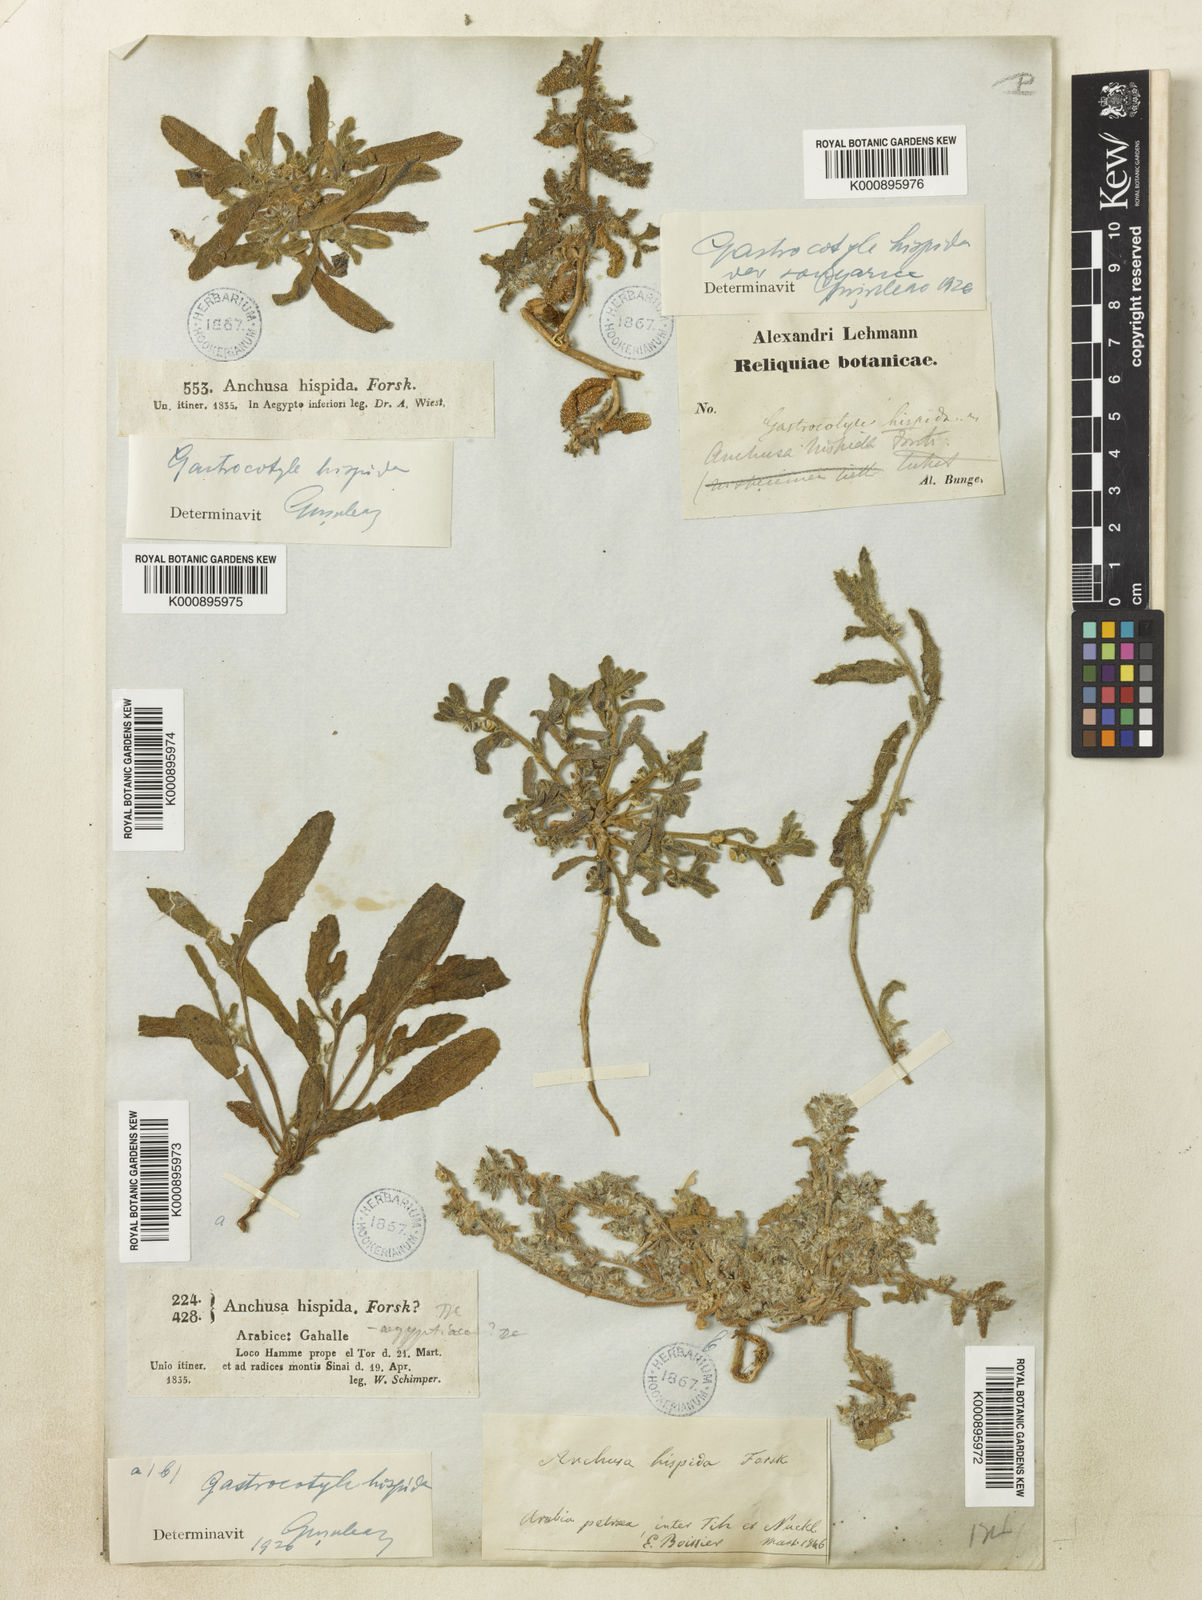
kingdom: Plantae
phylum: Tracheophyta
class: Magnoliopsida
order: Boraginales
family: Boraginaceae
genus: Phyllocara
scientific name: Phyllocara
